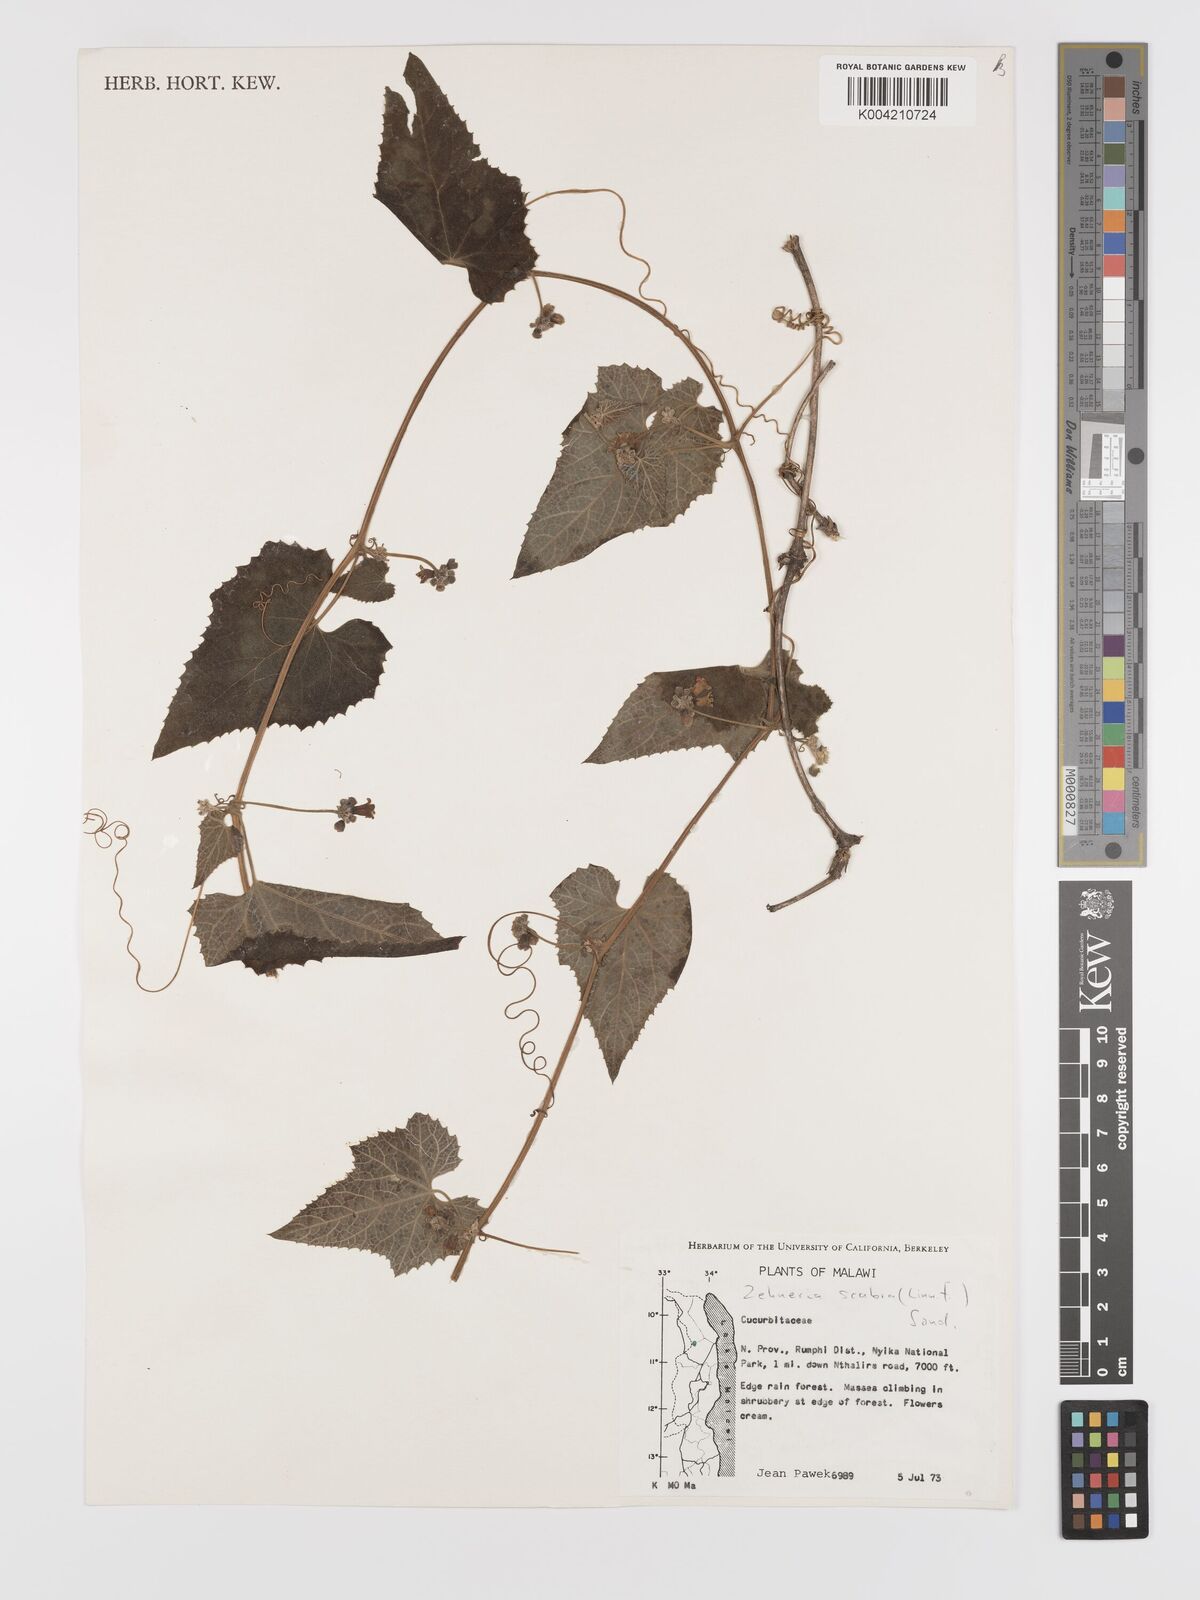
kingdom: Plantae
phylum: Tracheophyta
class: Magnoliopsida
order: Cucurbitales
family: Cucurbitaceae
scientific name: Cucurbitaceae
